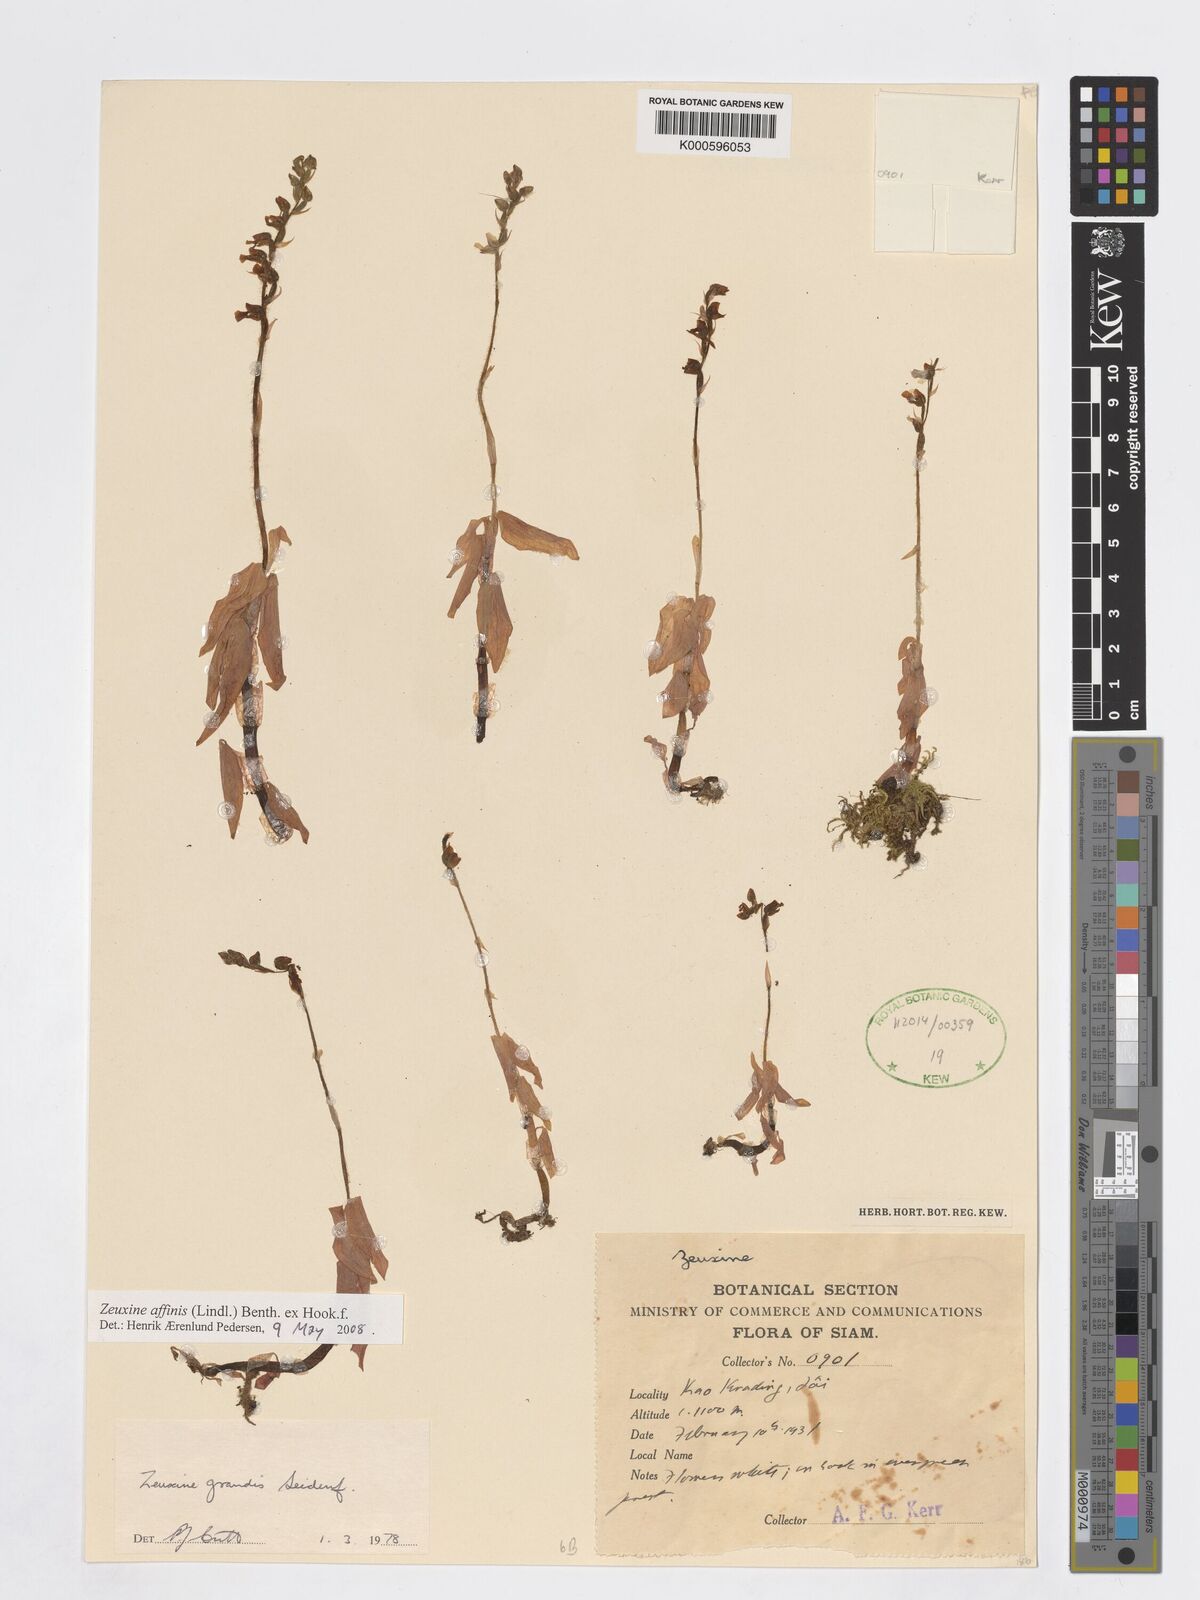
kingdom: Plantae
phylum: Tracheophyta
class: Liliopsida
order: Asparagales
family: Orchidaceae
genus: Zeuxine
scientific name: Zeuxine affinis
